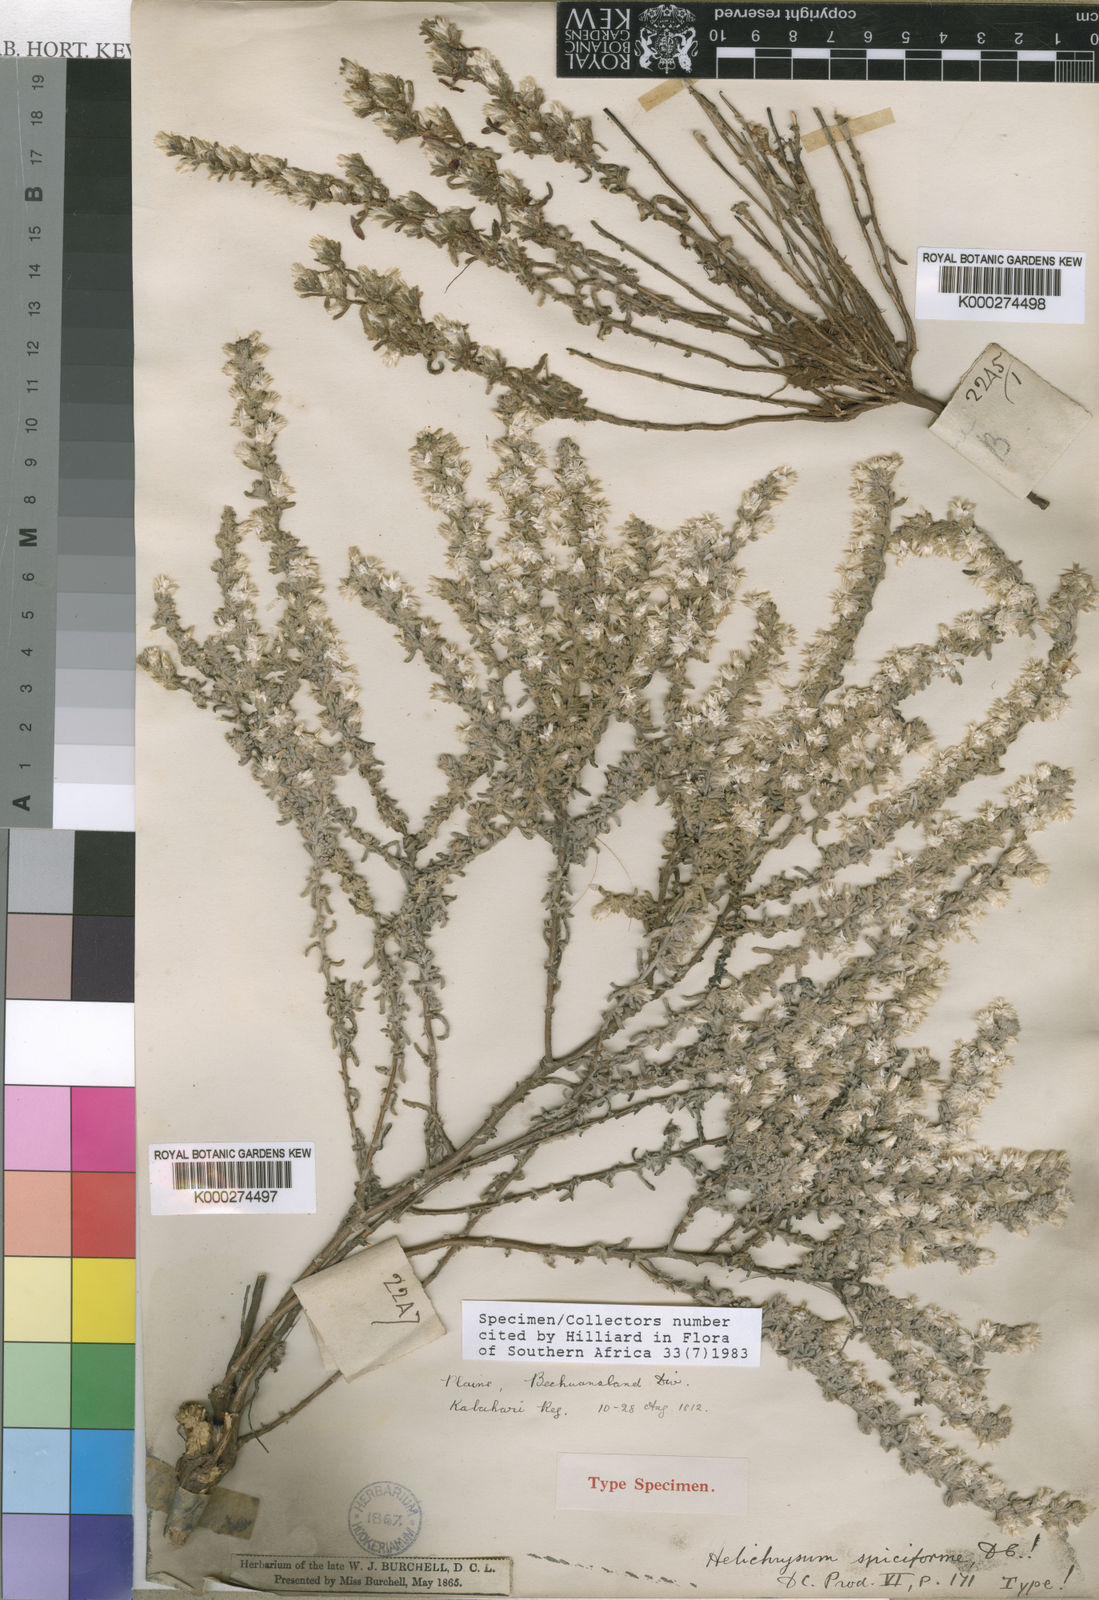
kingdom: Plantae
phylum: Tracheophyta
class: Magnoliopsida
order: Asterales
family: Asteraceae
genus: Helichrysum
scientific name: Helichrysum spiciforme
